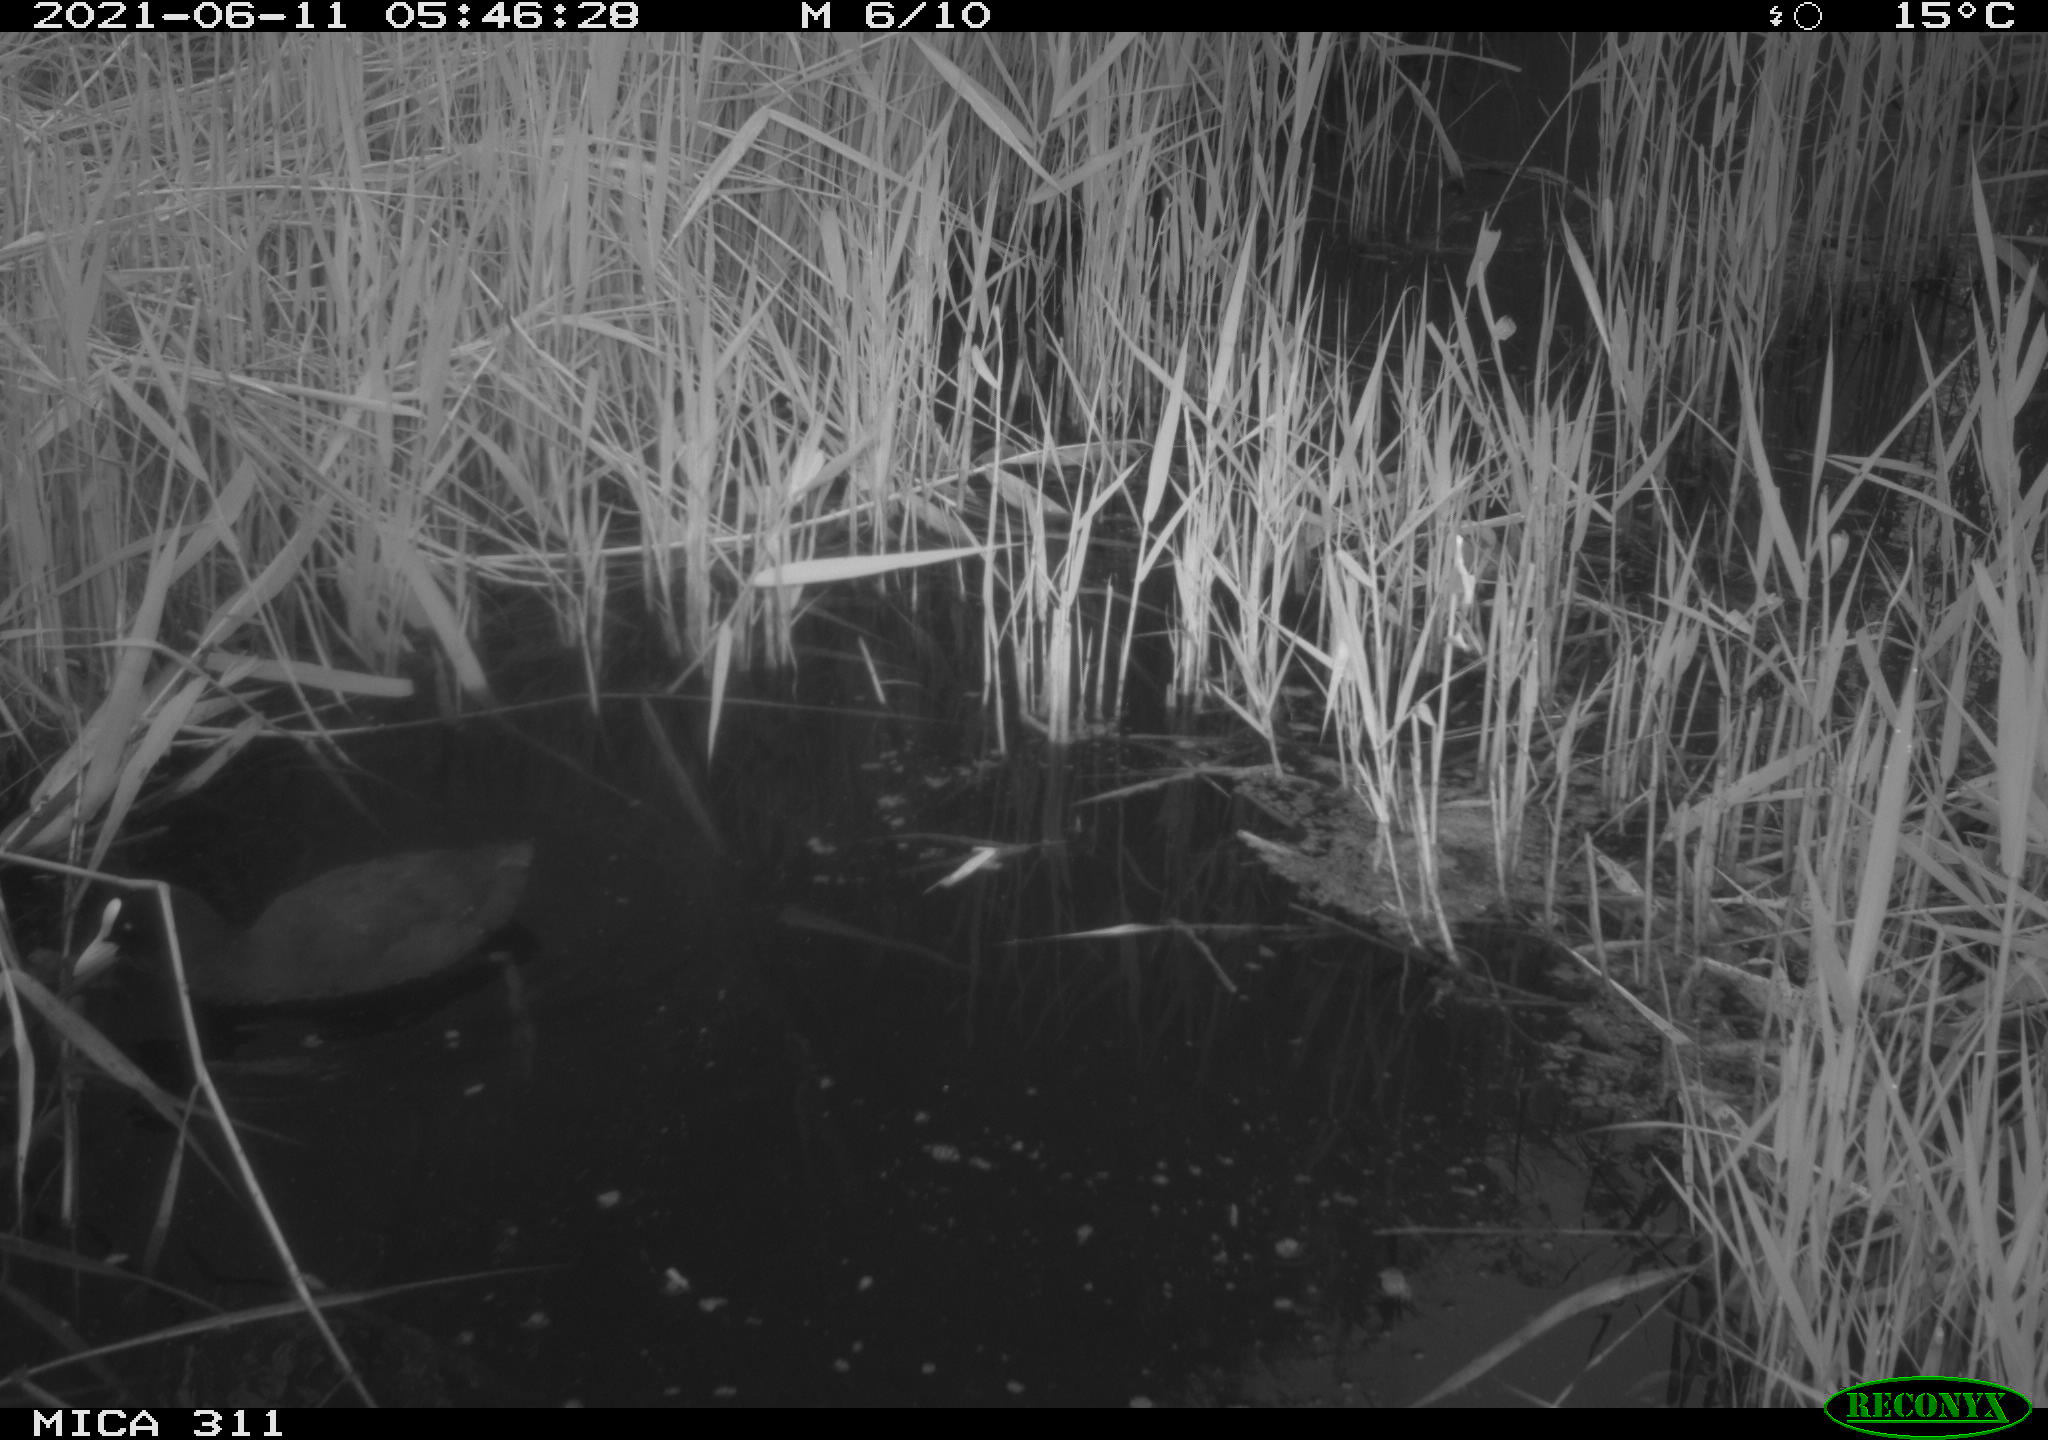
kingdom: Animalia
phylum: Chordata
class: Aves
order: Gruiformes
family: Rallidae
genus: Fulica
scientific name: Fulica atra
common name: Eurasian coot
